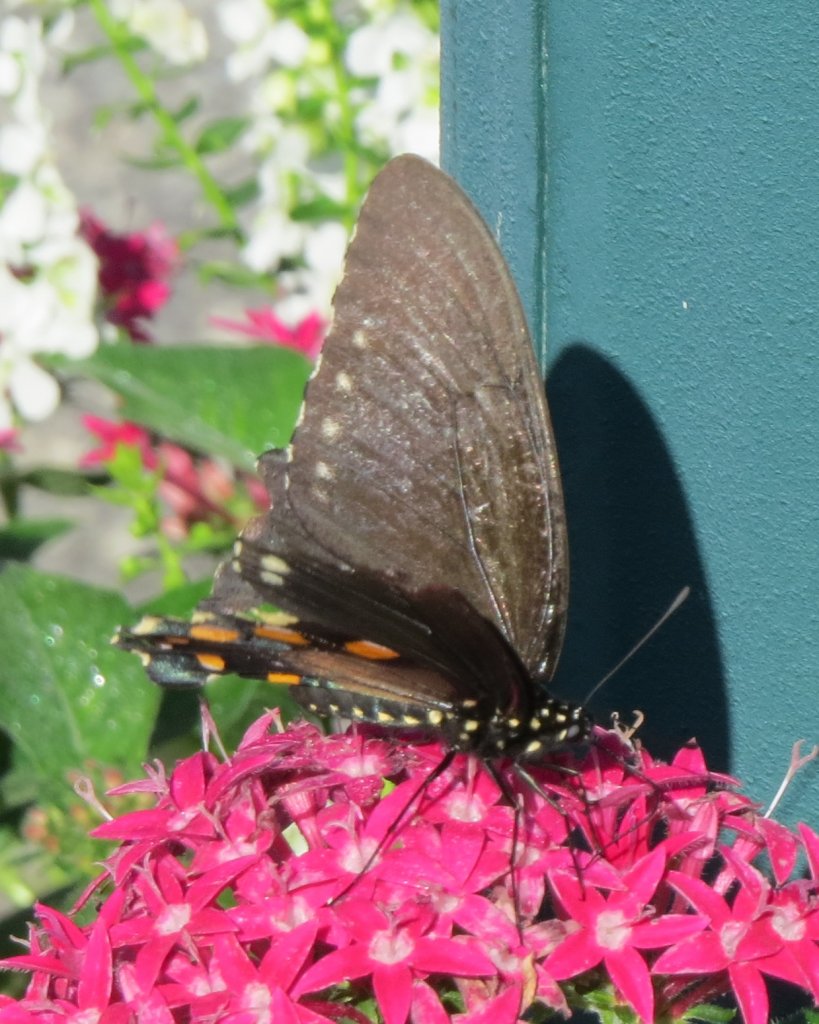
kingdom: Animalia
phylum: Arthropoda
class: Insecta
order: Lepidoptera
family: Papilionidae
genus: Battus
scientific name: Battus philenor
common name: Pipevine Swallowtail
